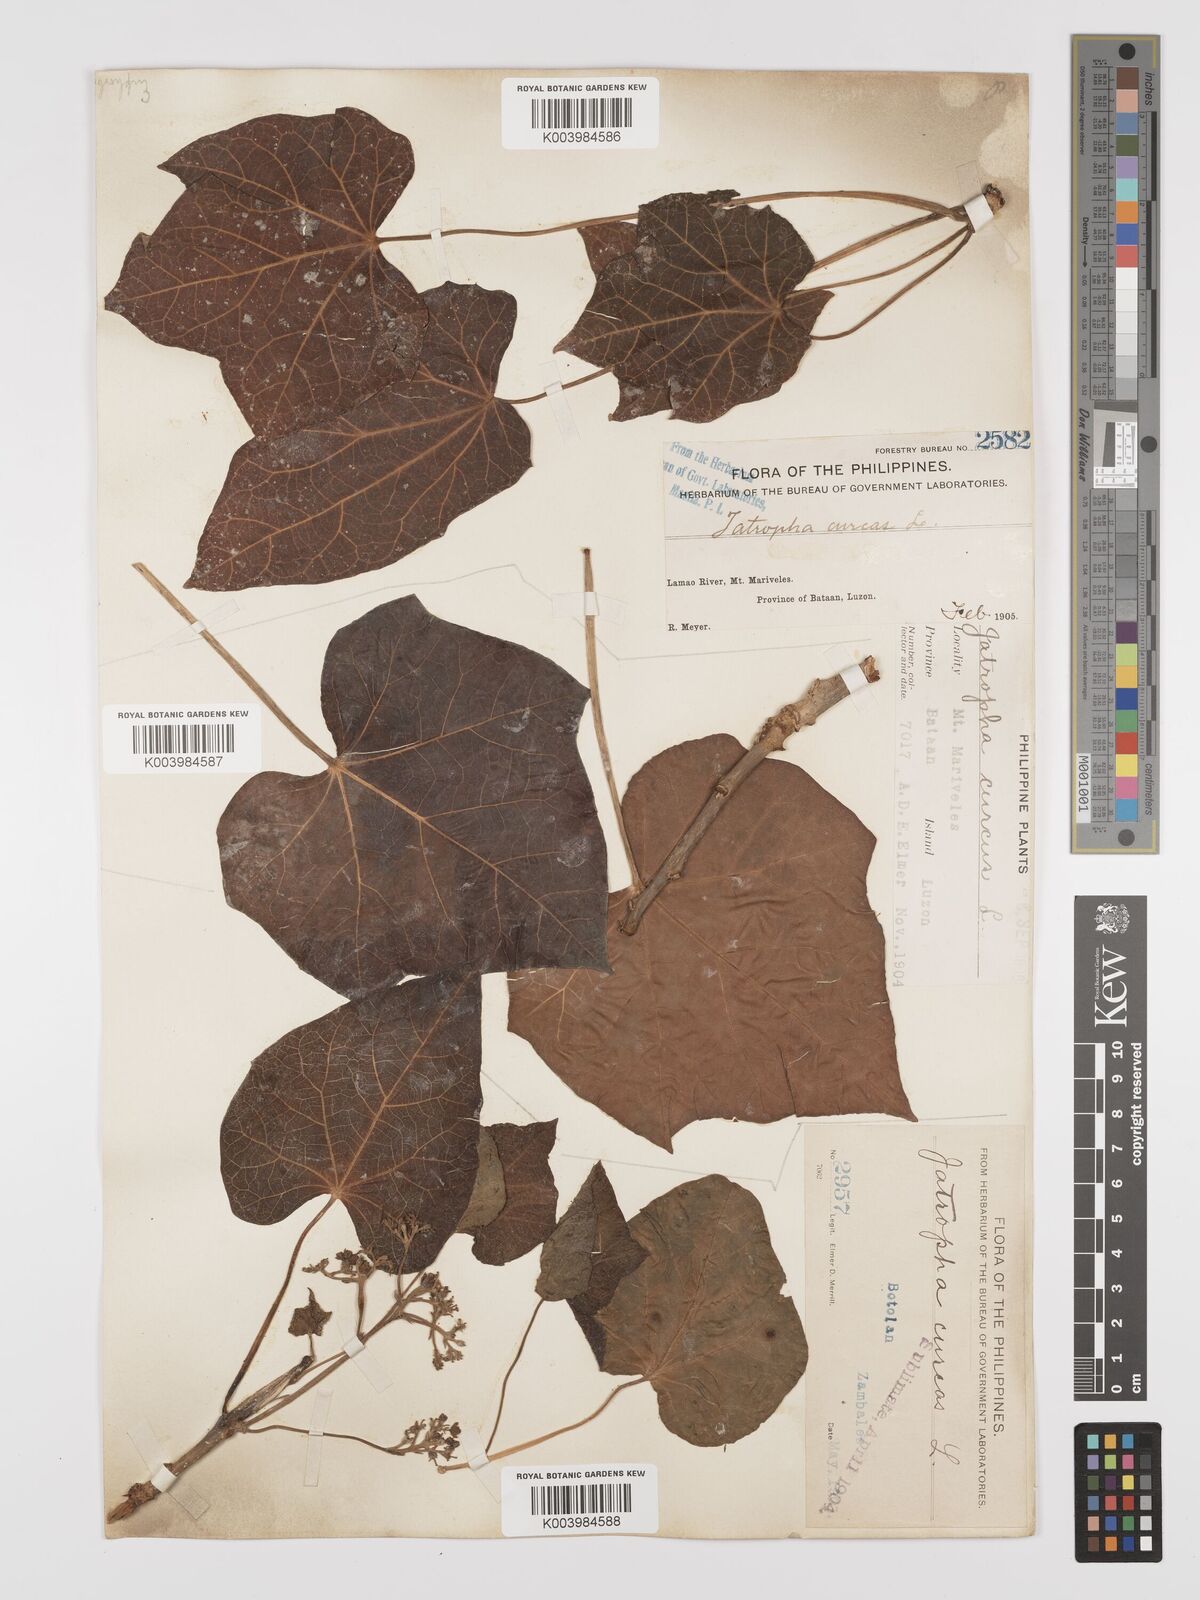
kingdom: Plantae
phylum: Tracheophyta
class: Magnoliopsida
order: Malpighiales
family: Euphorbiaceae
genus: Jatropha
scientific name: Jatropha curcas
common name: Barbados nut
